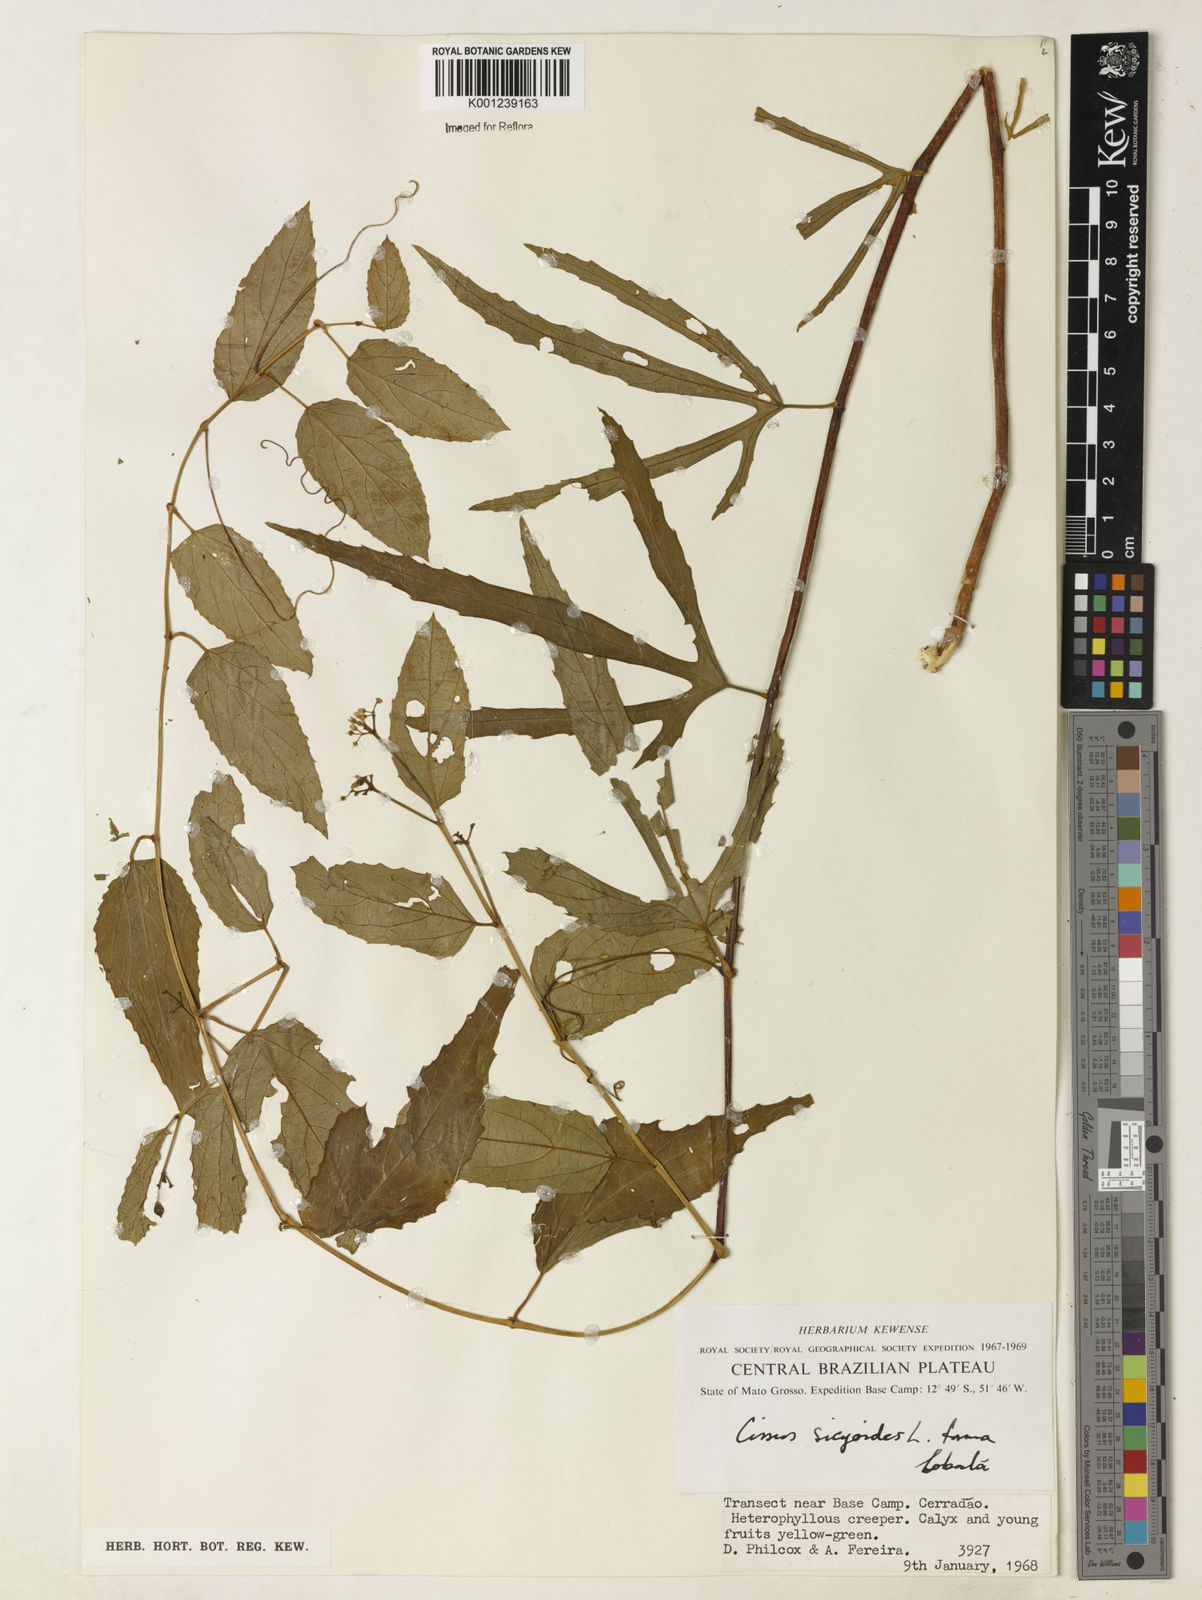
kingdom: Plantae
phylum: Tracheophyta
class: Magnoliopsida
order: Vitales
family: Vitaceae
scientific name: Vitaceae
